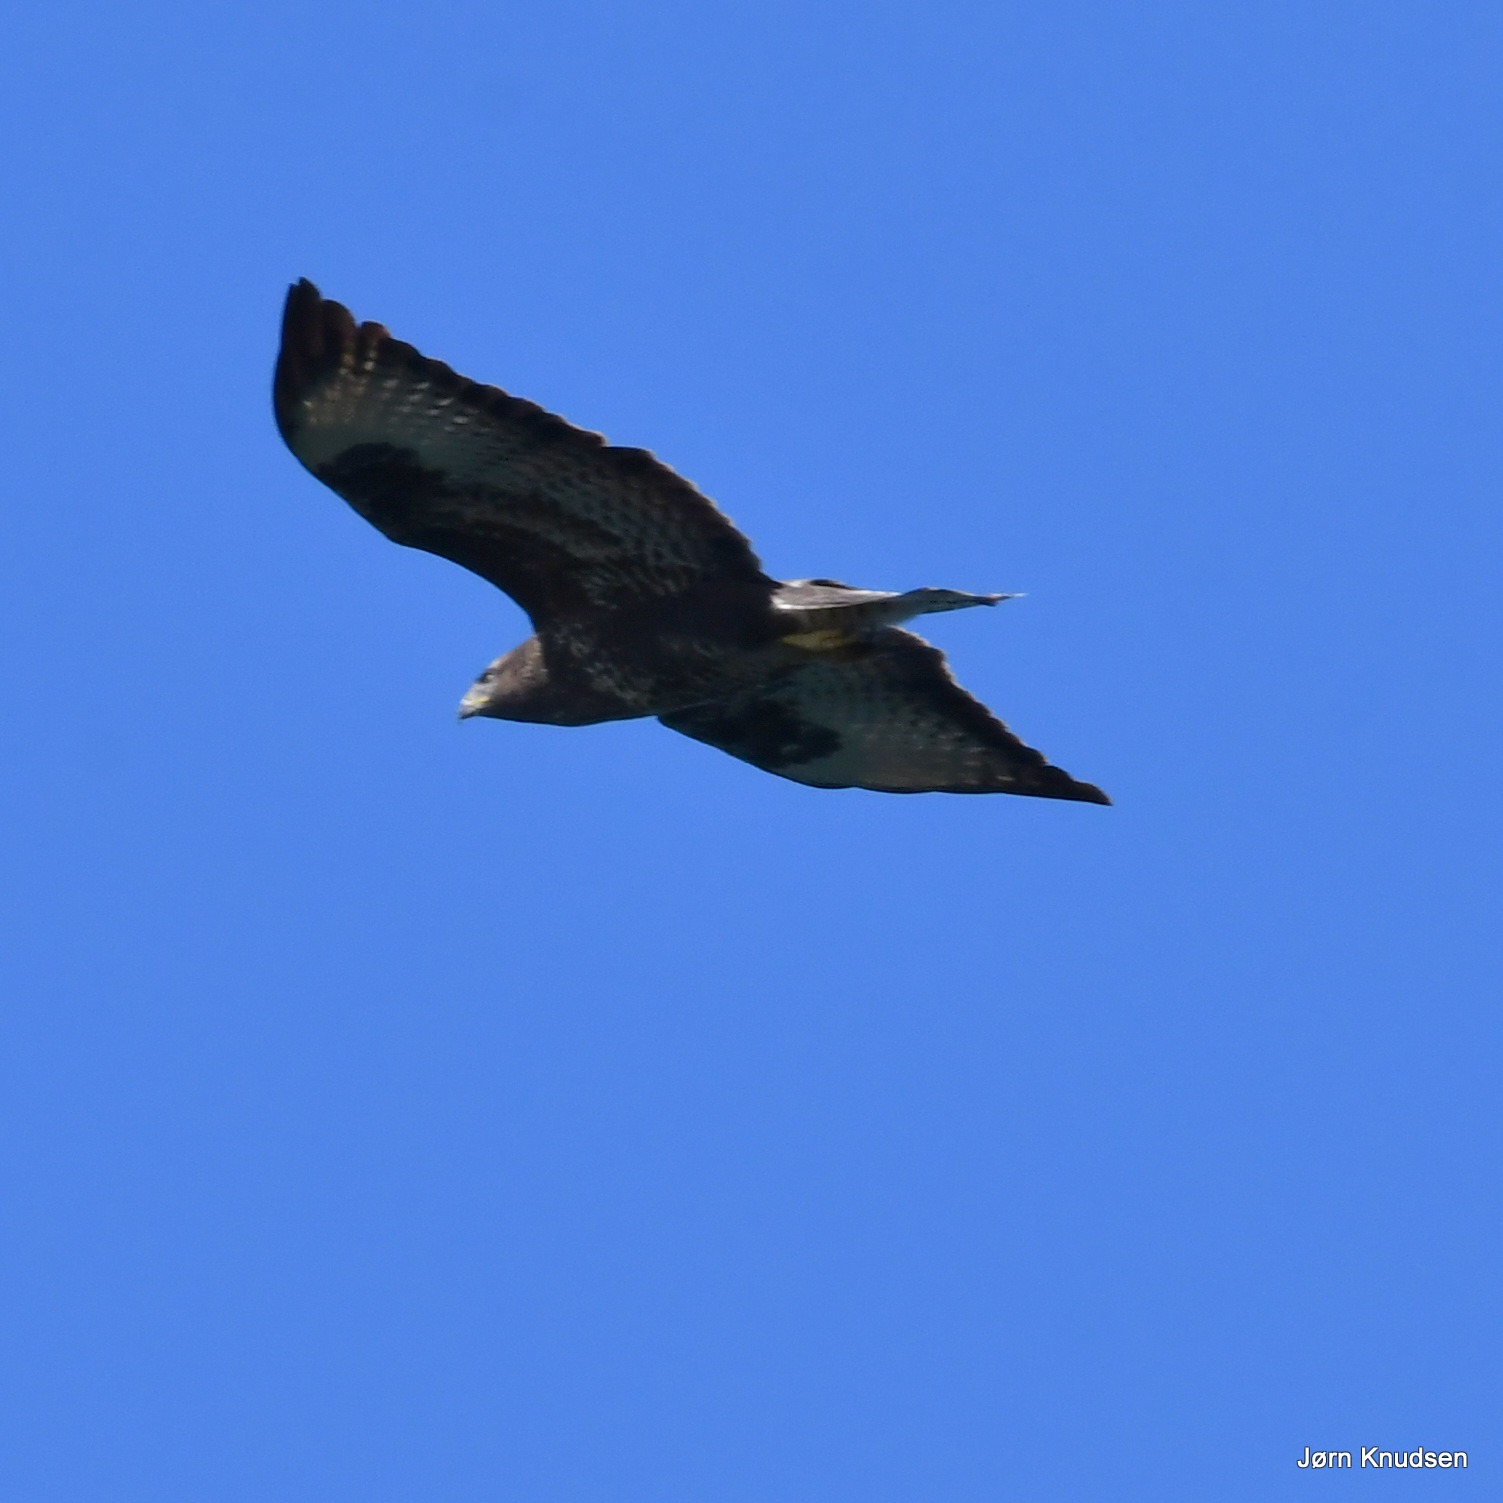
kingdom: Animalia
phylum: Chordata
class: Aves
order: Accipitriformes
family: Accipitridae
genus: Buteo
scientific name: Buteo buteo
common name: Musvåge
